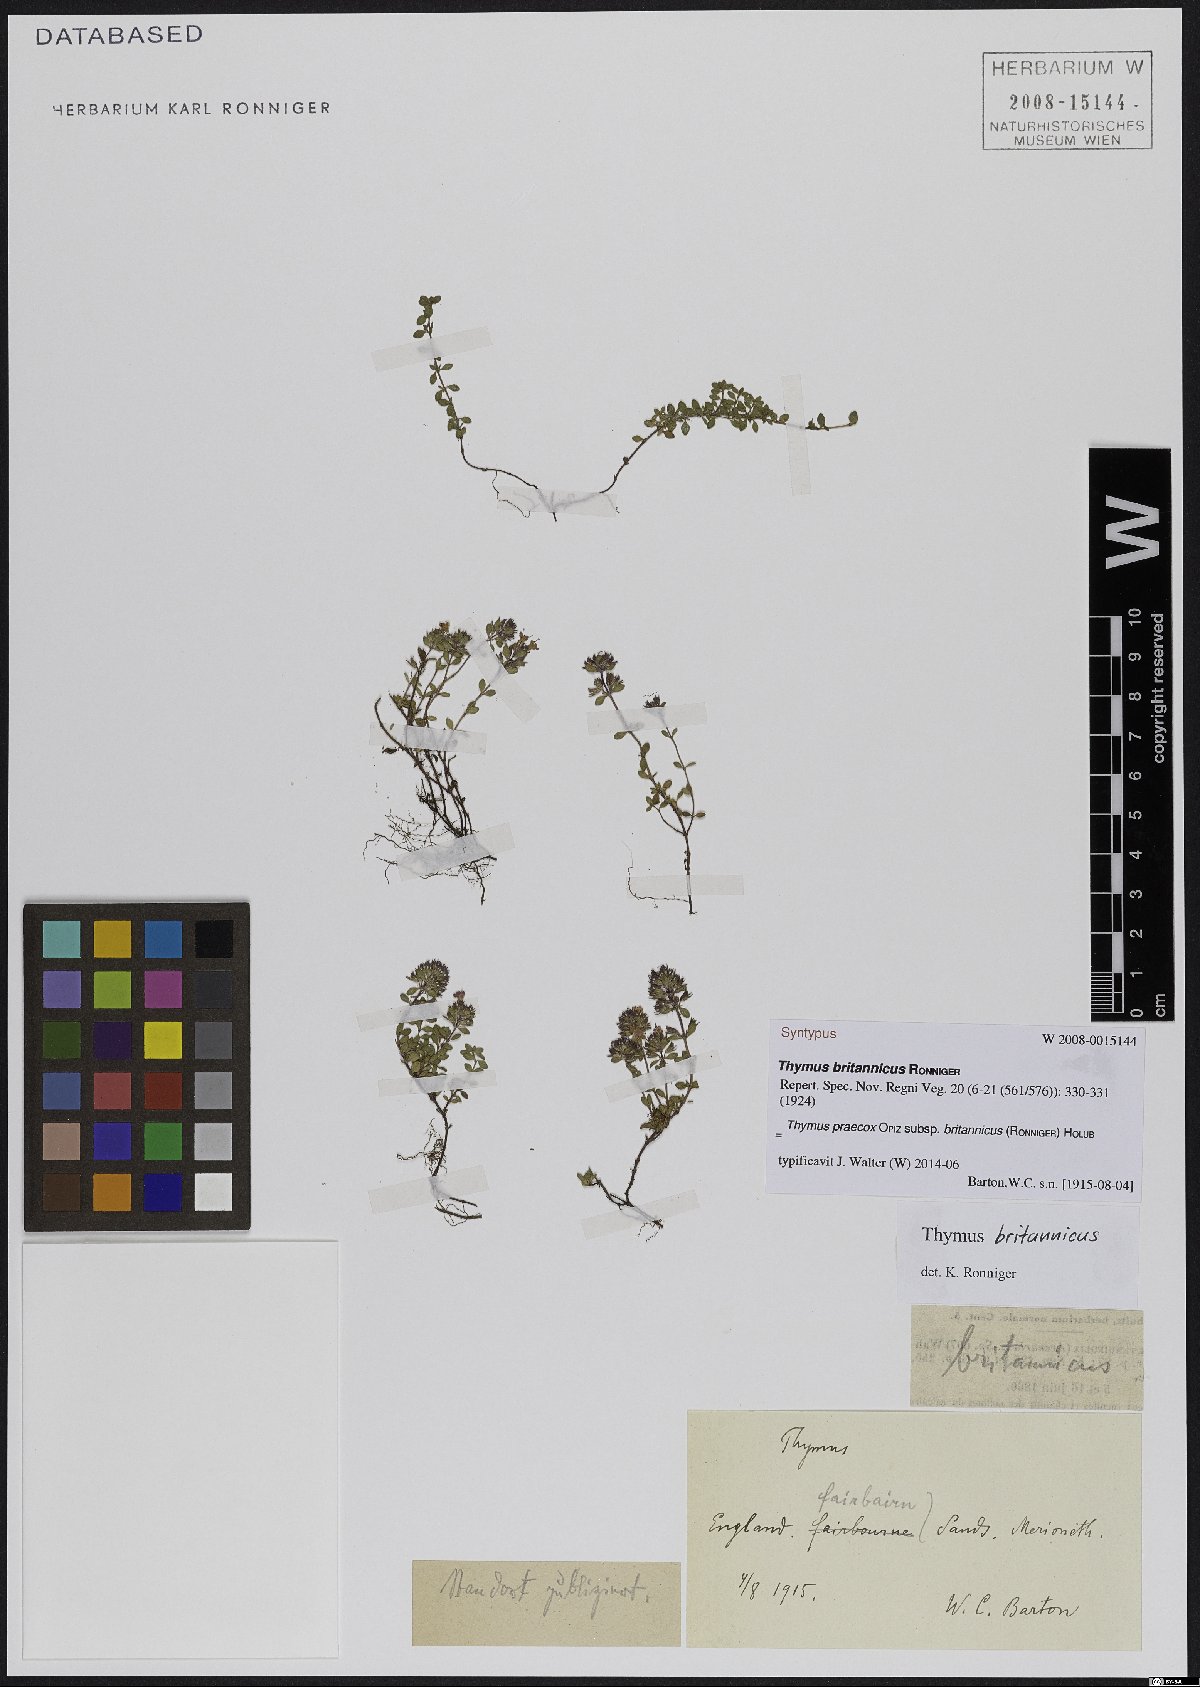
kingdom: Plantae
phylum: Tracheophyta
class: Magnoliopsida
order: Lamiales
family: Lamiaceae
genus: Thymus
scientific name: Thymus praecox
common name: Wild thyme
